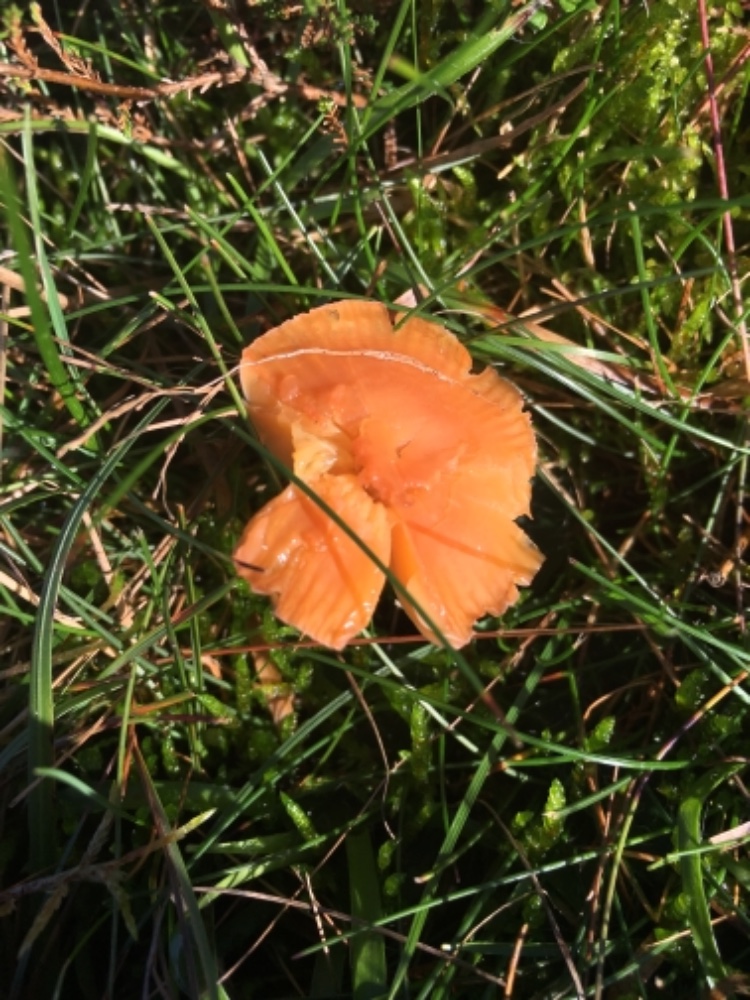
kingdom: Fungi
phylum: Basidiomycota
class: Agaricomycetes
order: Agaricales
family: Hygrophoraceae
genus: Gliophorus
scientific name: Gliophorus laetus
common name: brusk-vokshat
